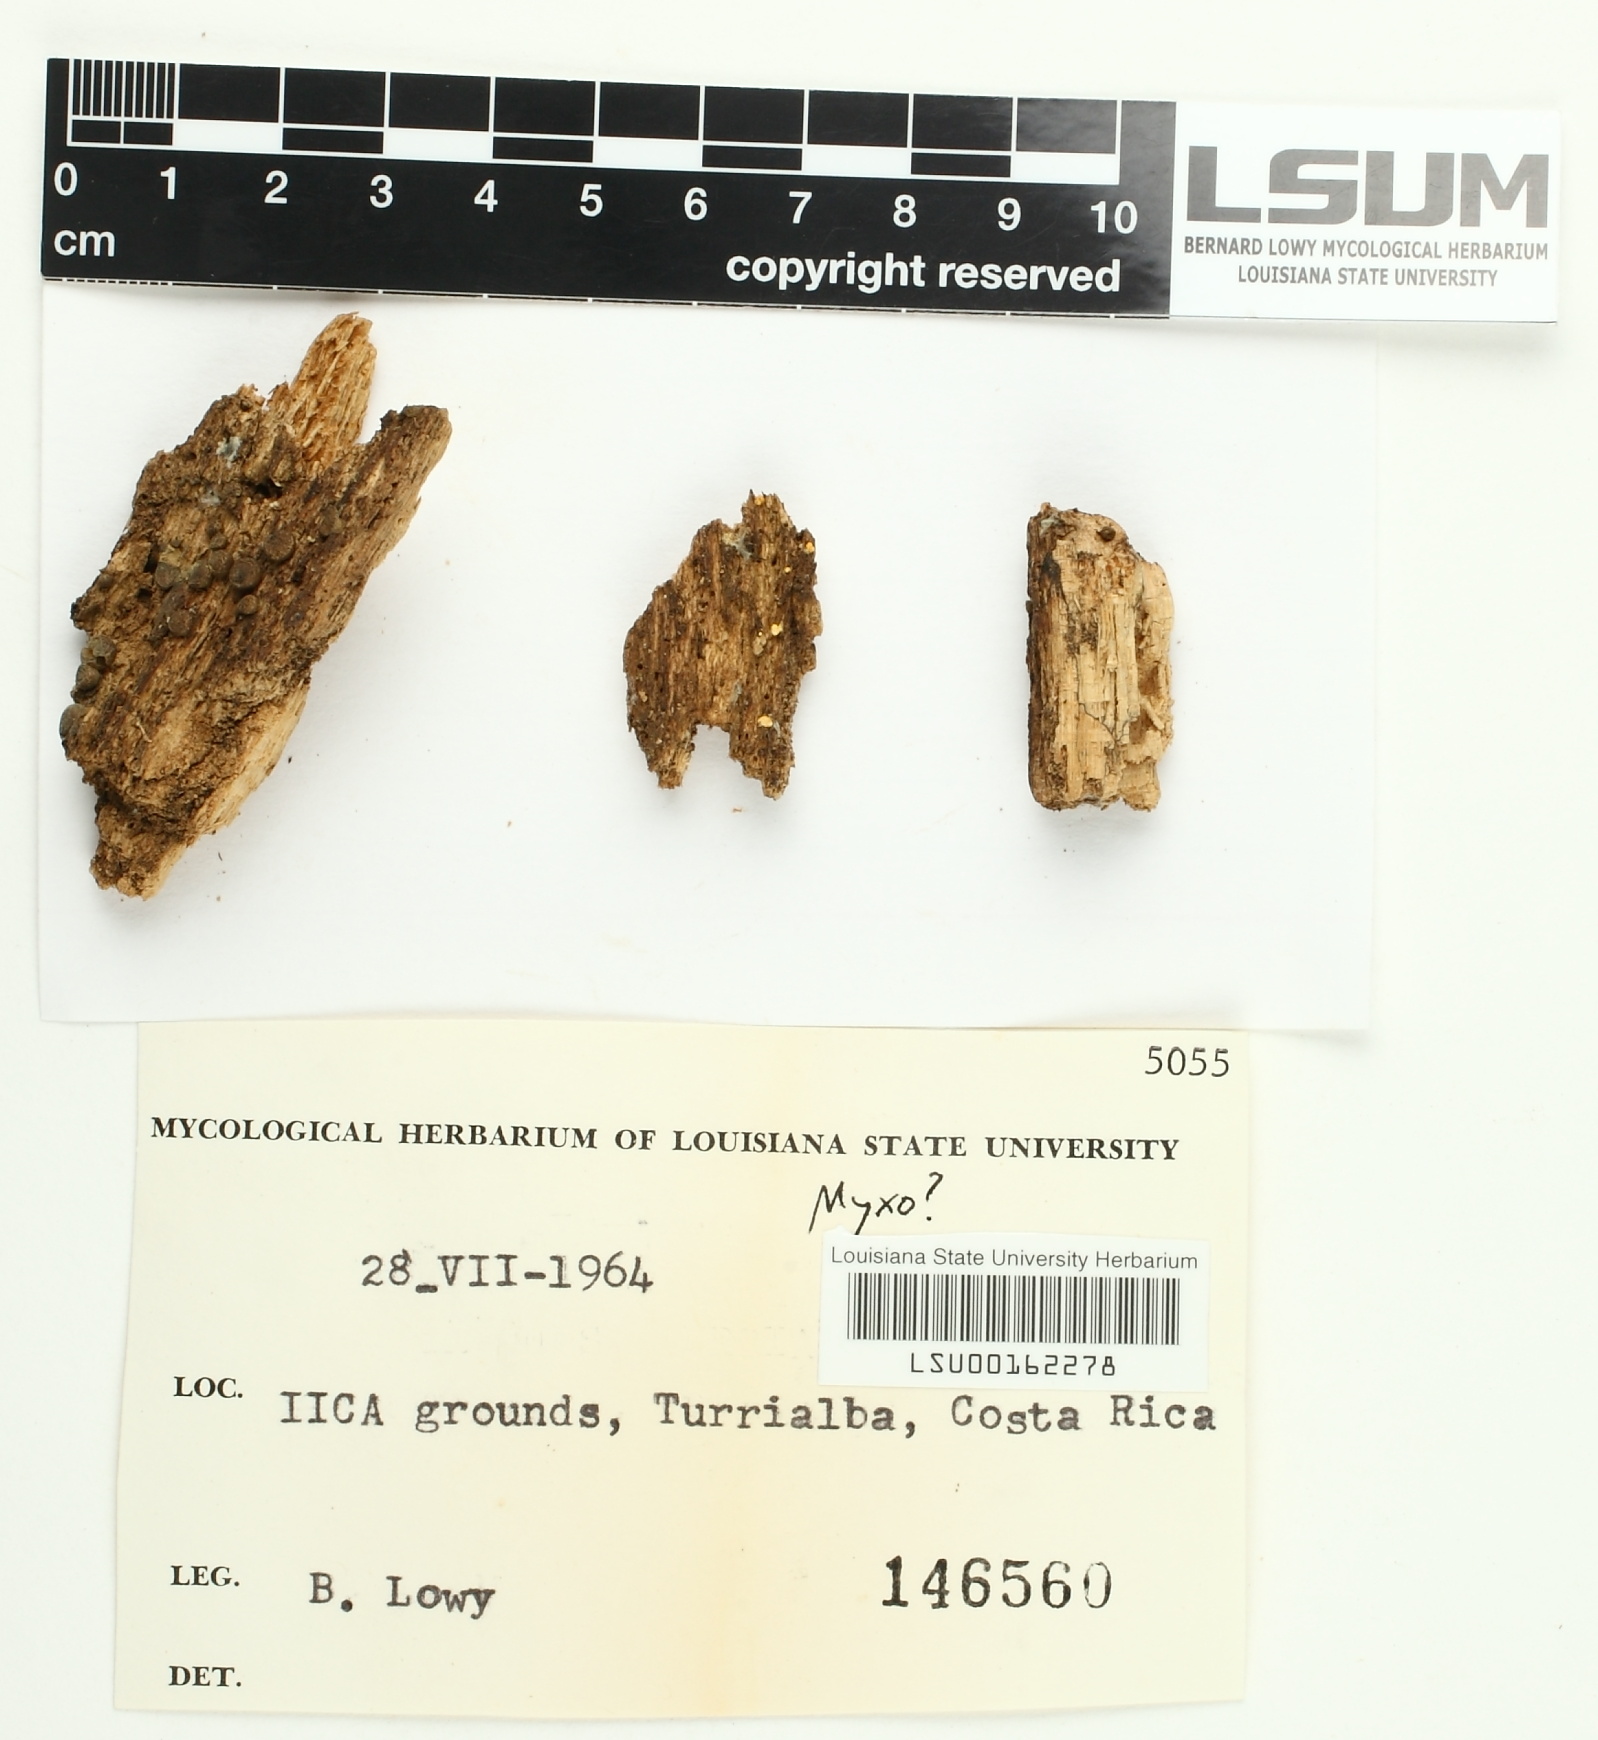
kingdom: Fungi
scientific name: Fungi
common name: Fungi
